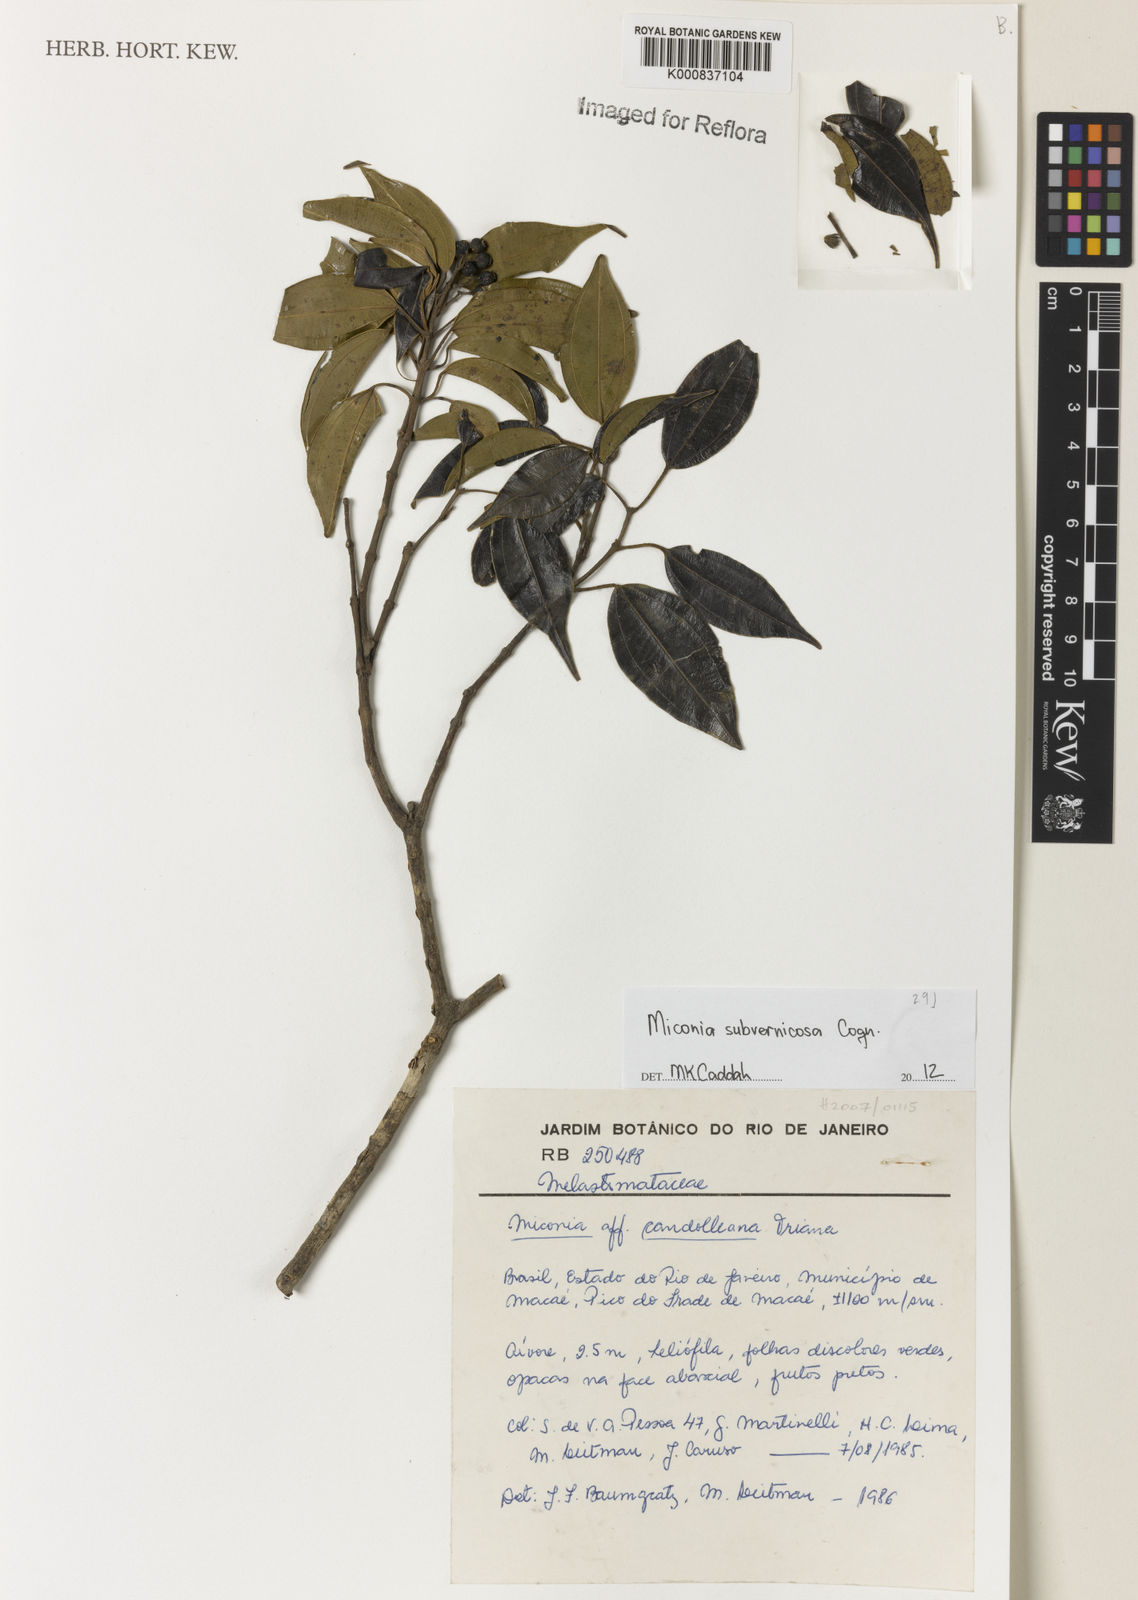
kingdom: Plantae
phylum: Tracheophyta
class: Magnoliopsida
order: Myrtales
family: Melastomataceae
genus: Miconia
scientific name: Miconia subvernicosa
